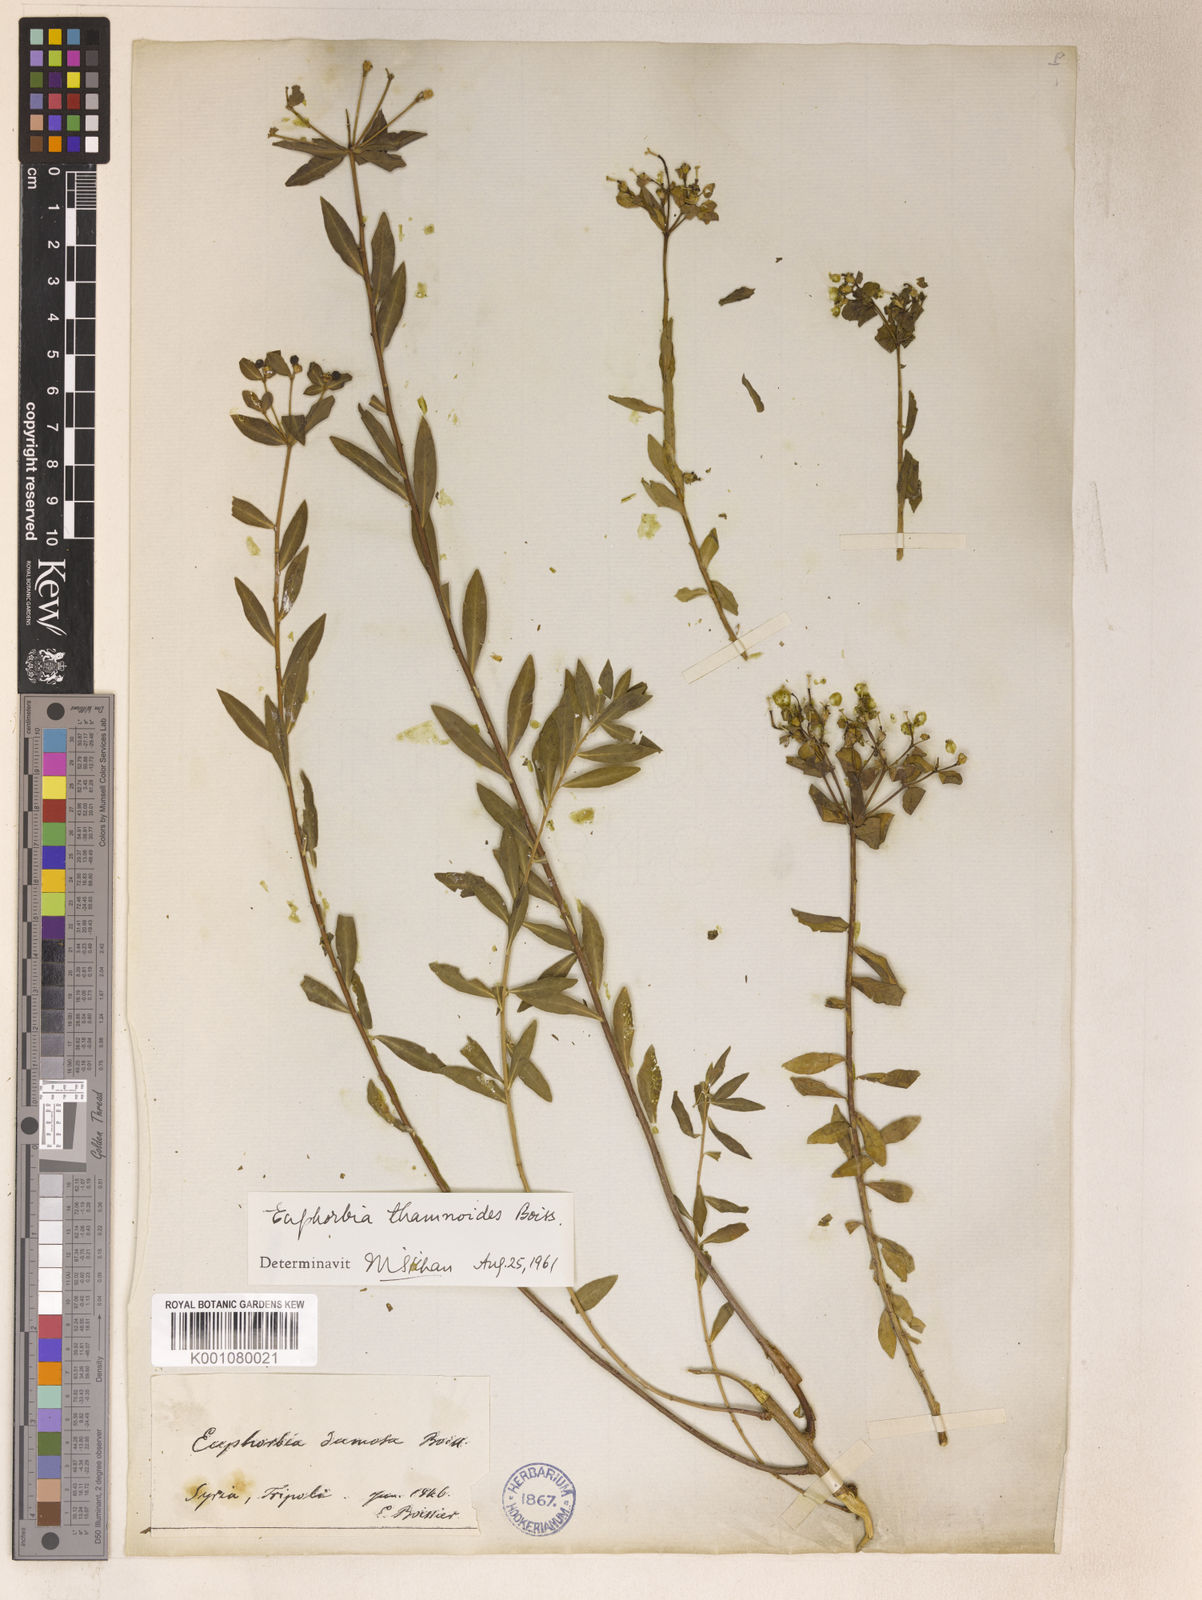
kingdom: Plantae
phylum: Tracheophyta
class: Magnoliopsida
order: Malpighiales
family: Euphorbiaceae
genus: Euphorbia
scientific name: Euphorbia hierosolymitana
